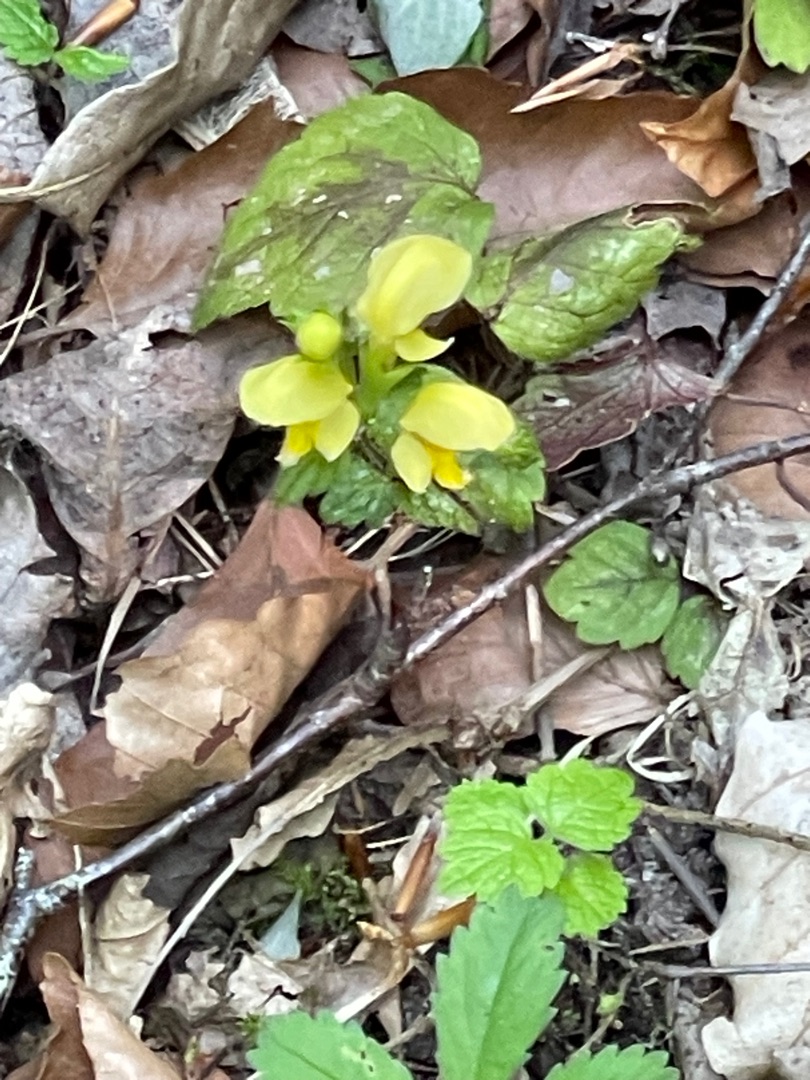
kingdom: Plantae
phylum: Tracheophyta
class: Magnoliopsida
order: Lamiales
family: Lamiaceae
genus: Lamium
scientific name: Lamium galeobdolon
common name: Guldnælde
